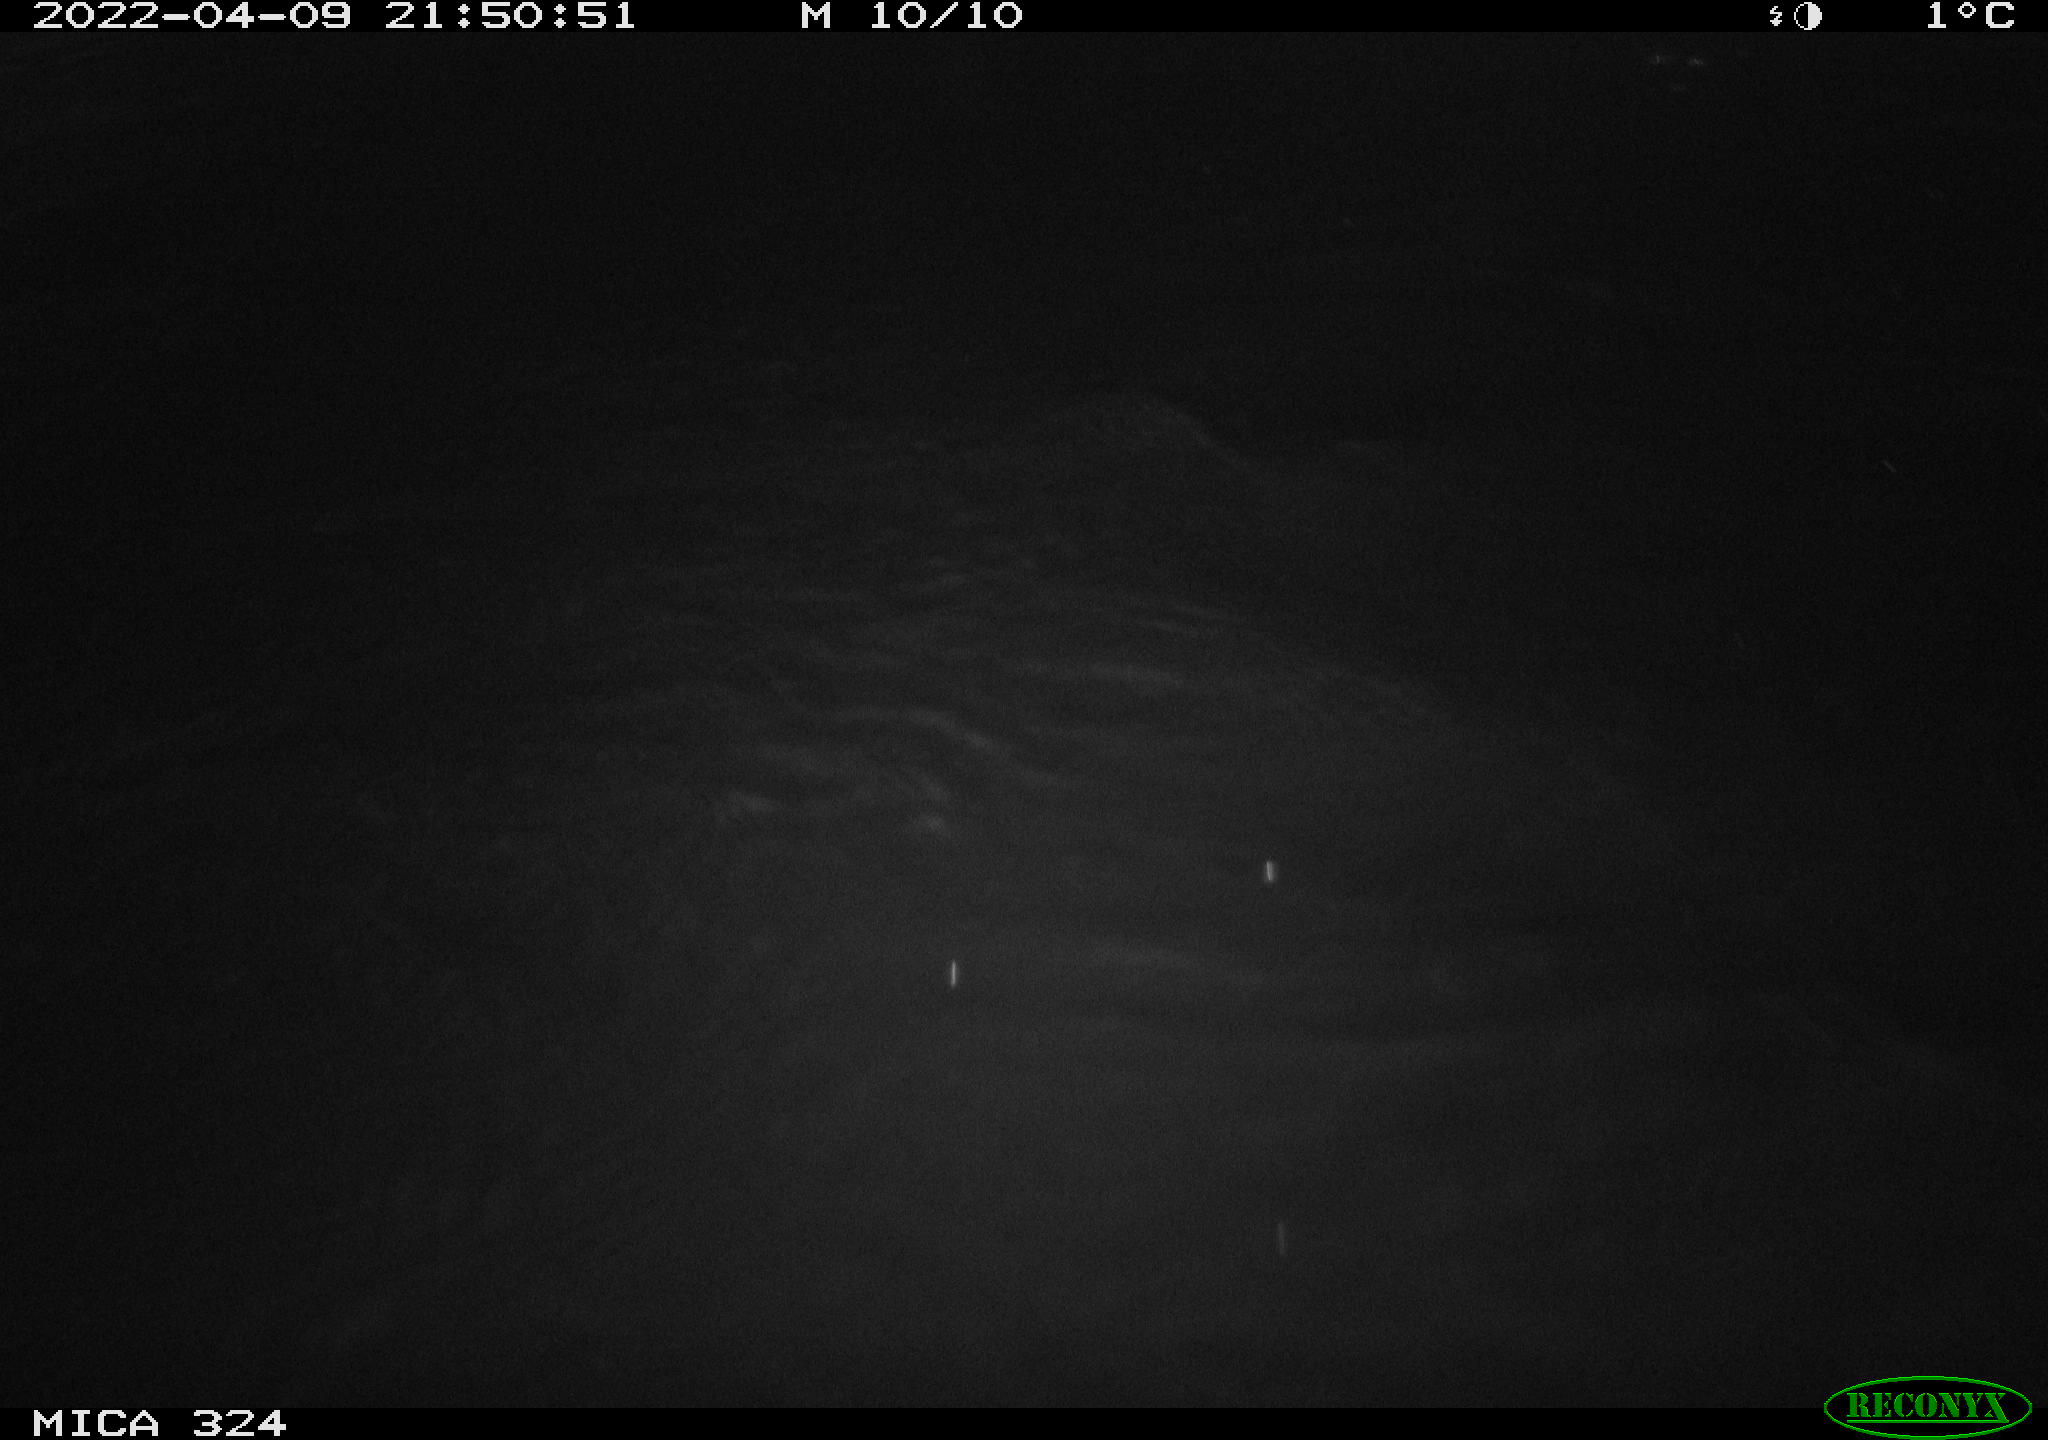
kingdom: Animalia
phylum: Chordata
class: Aves
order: Anseriformes
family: Anatidae
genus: Anas
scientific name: Anas platyrhynchos
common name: Mallard
